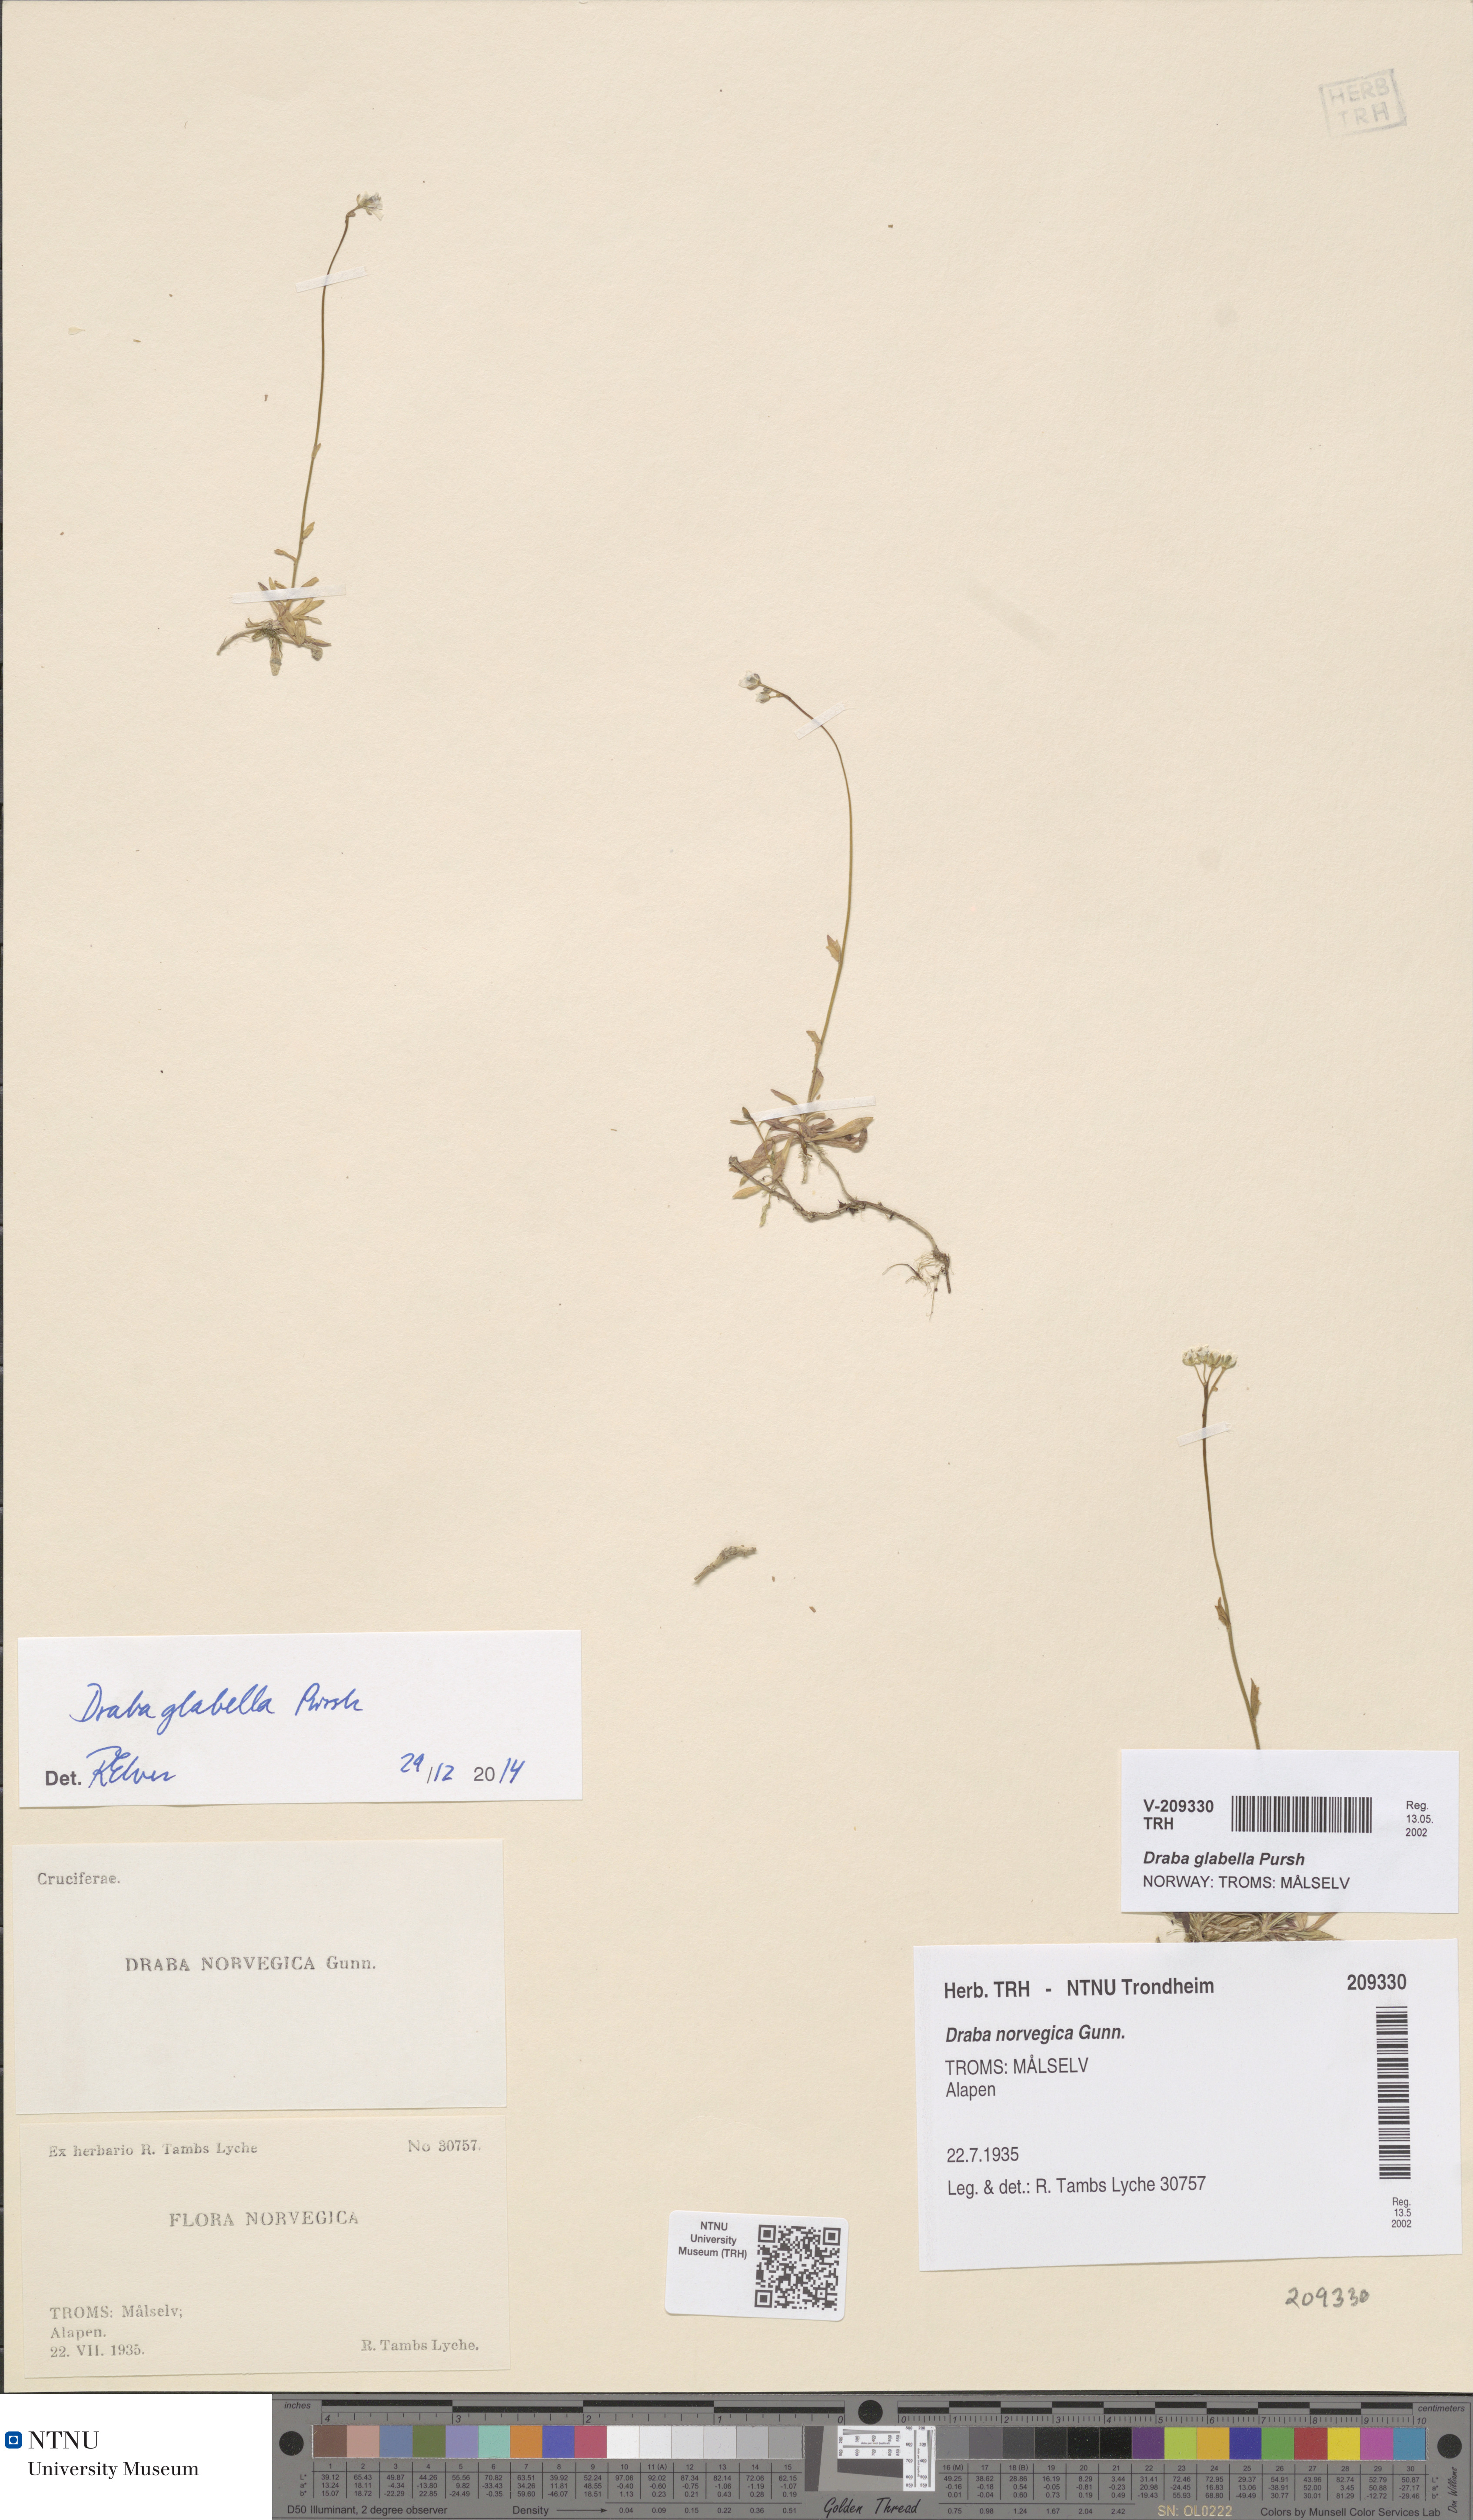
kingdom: Plantae
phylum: Tracheophyta
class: Magnoliopsida
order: Brassicales
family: Brassicaceae
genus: Draba
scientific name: Draba glabella
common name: Glaucous draba
